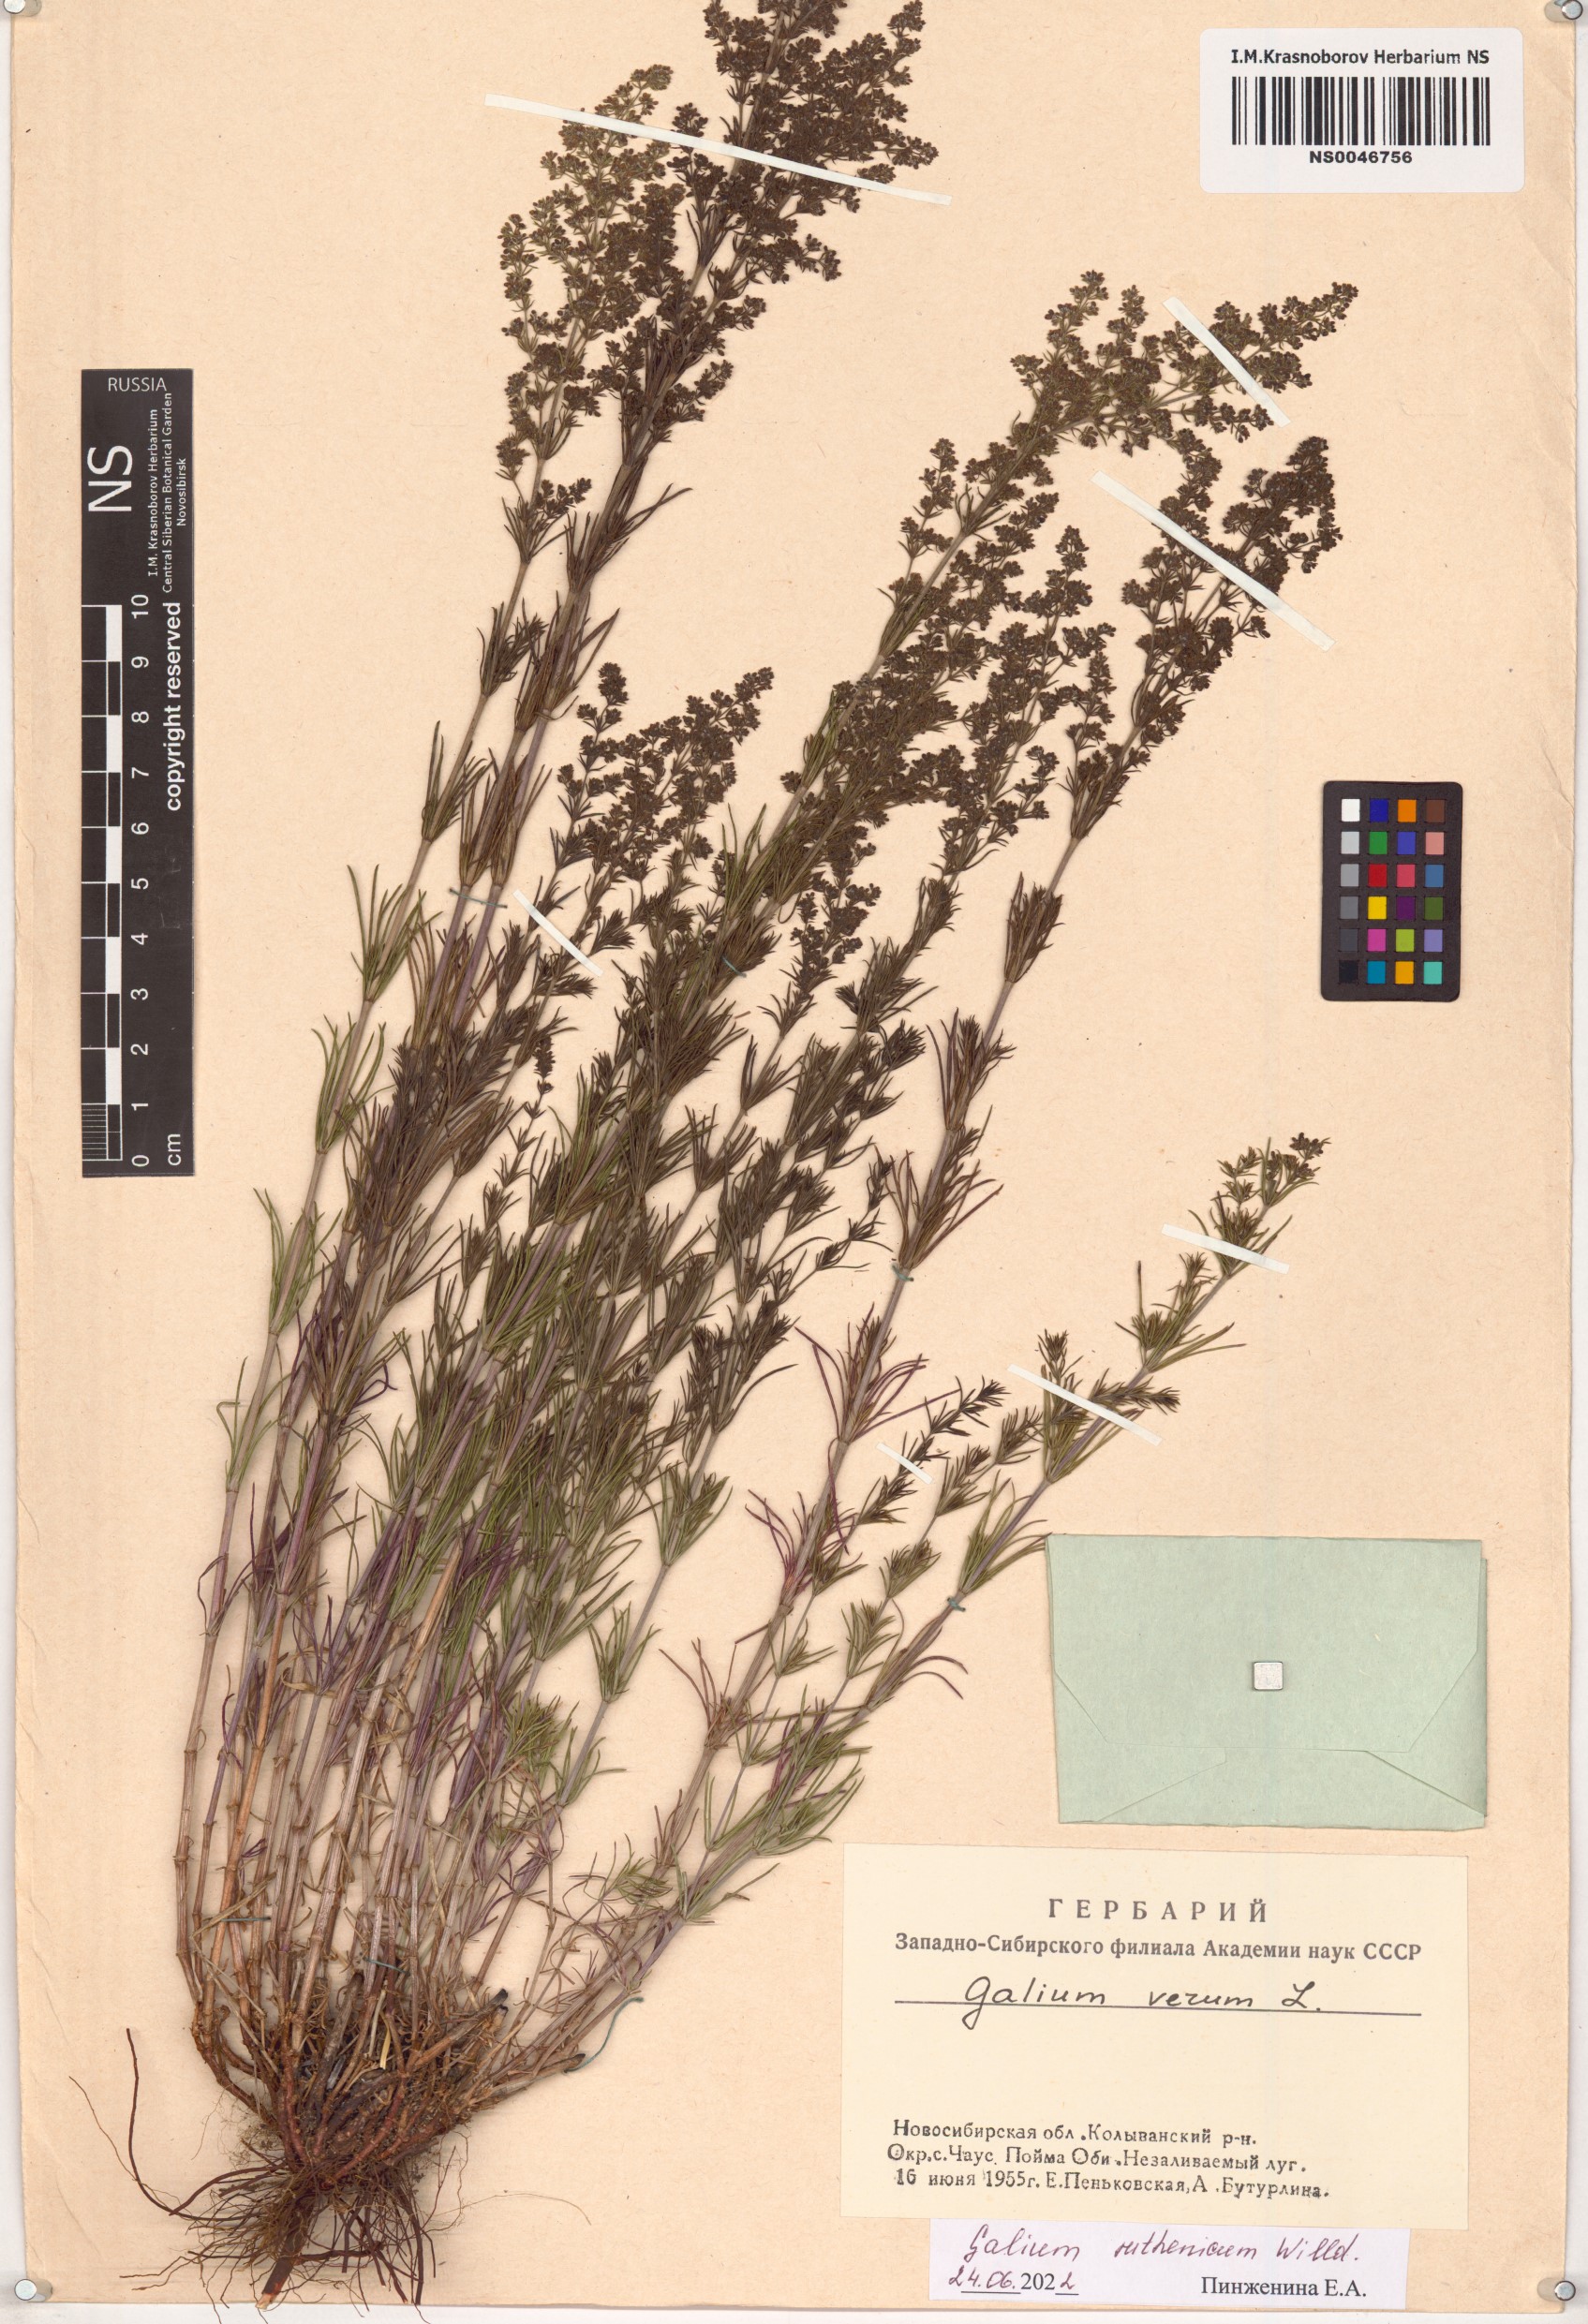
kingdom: Plantae
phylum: Tracheophyta
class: Magnoliopsida
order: Gentianales
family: Rubiaceae
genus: Galium
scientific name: Galium verum
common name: Lady's bedstraw
